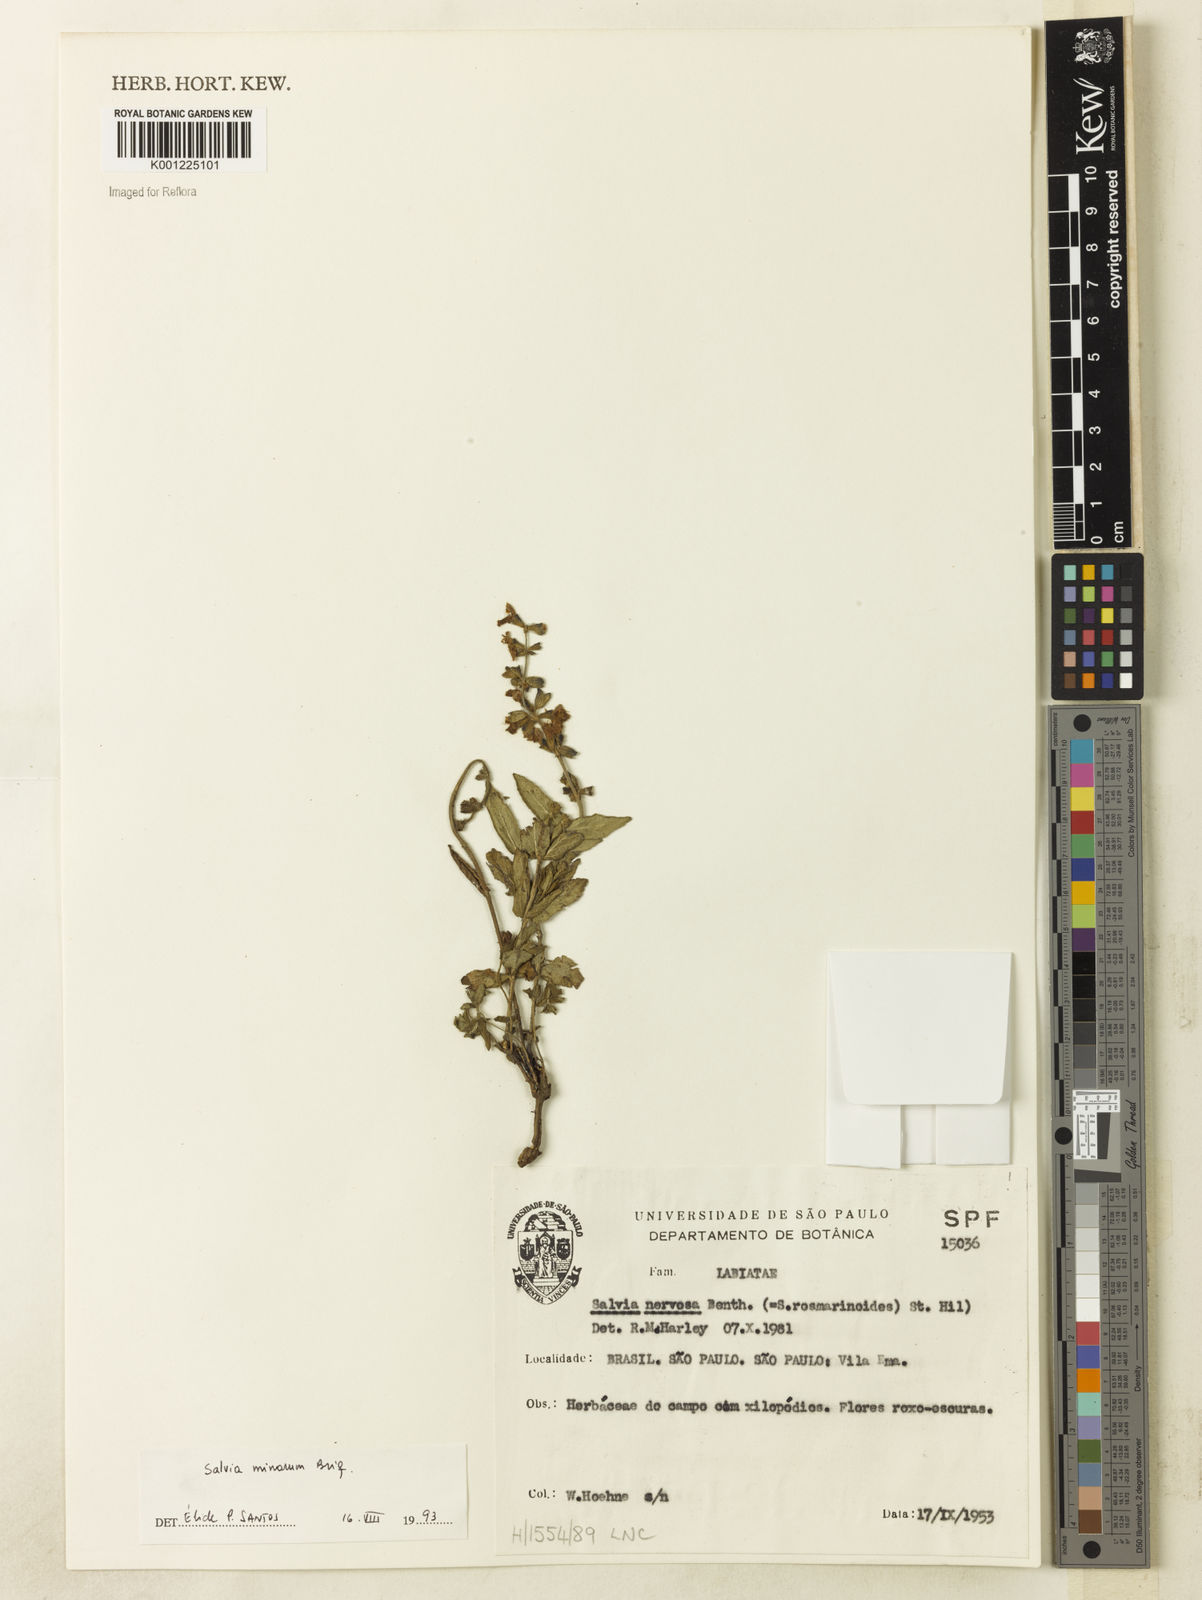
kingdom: Plantae
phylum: Tracheophyta
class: Magnoliopsida
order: Lamiales
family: Lamiaceae
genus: Salvia
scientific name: Salvia minarum
